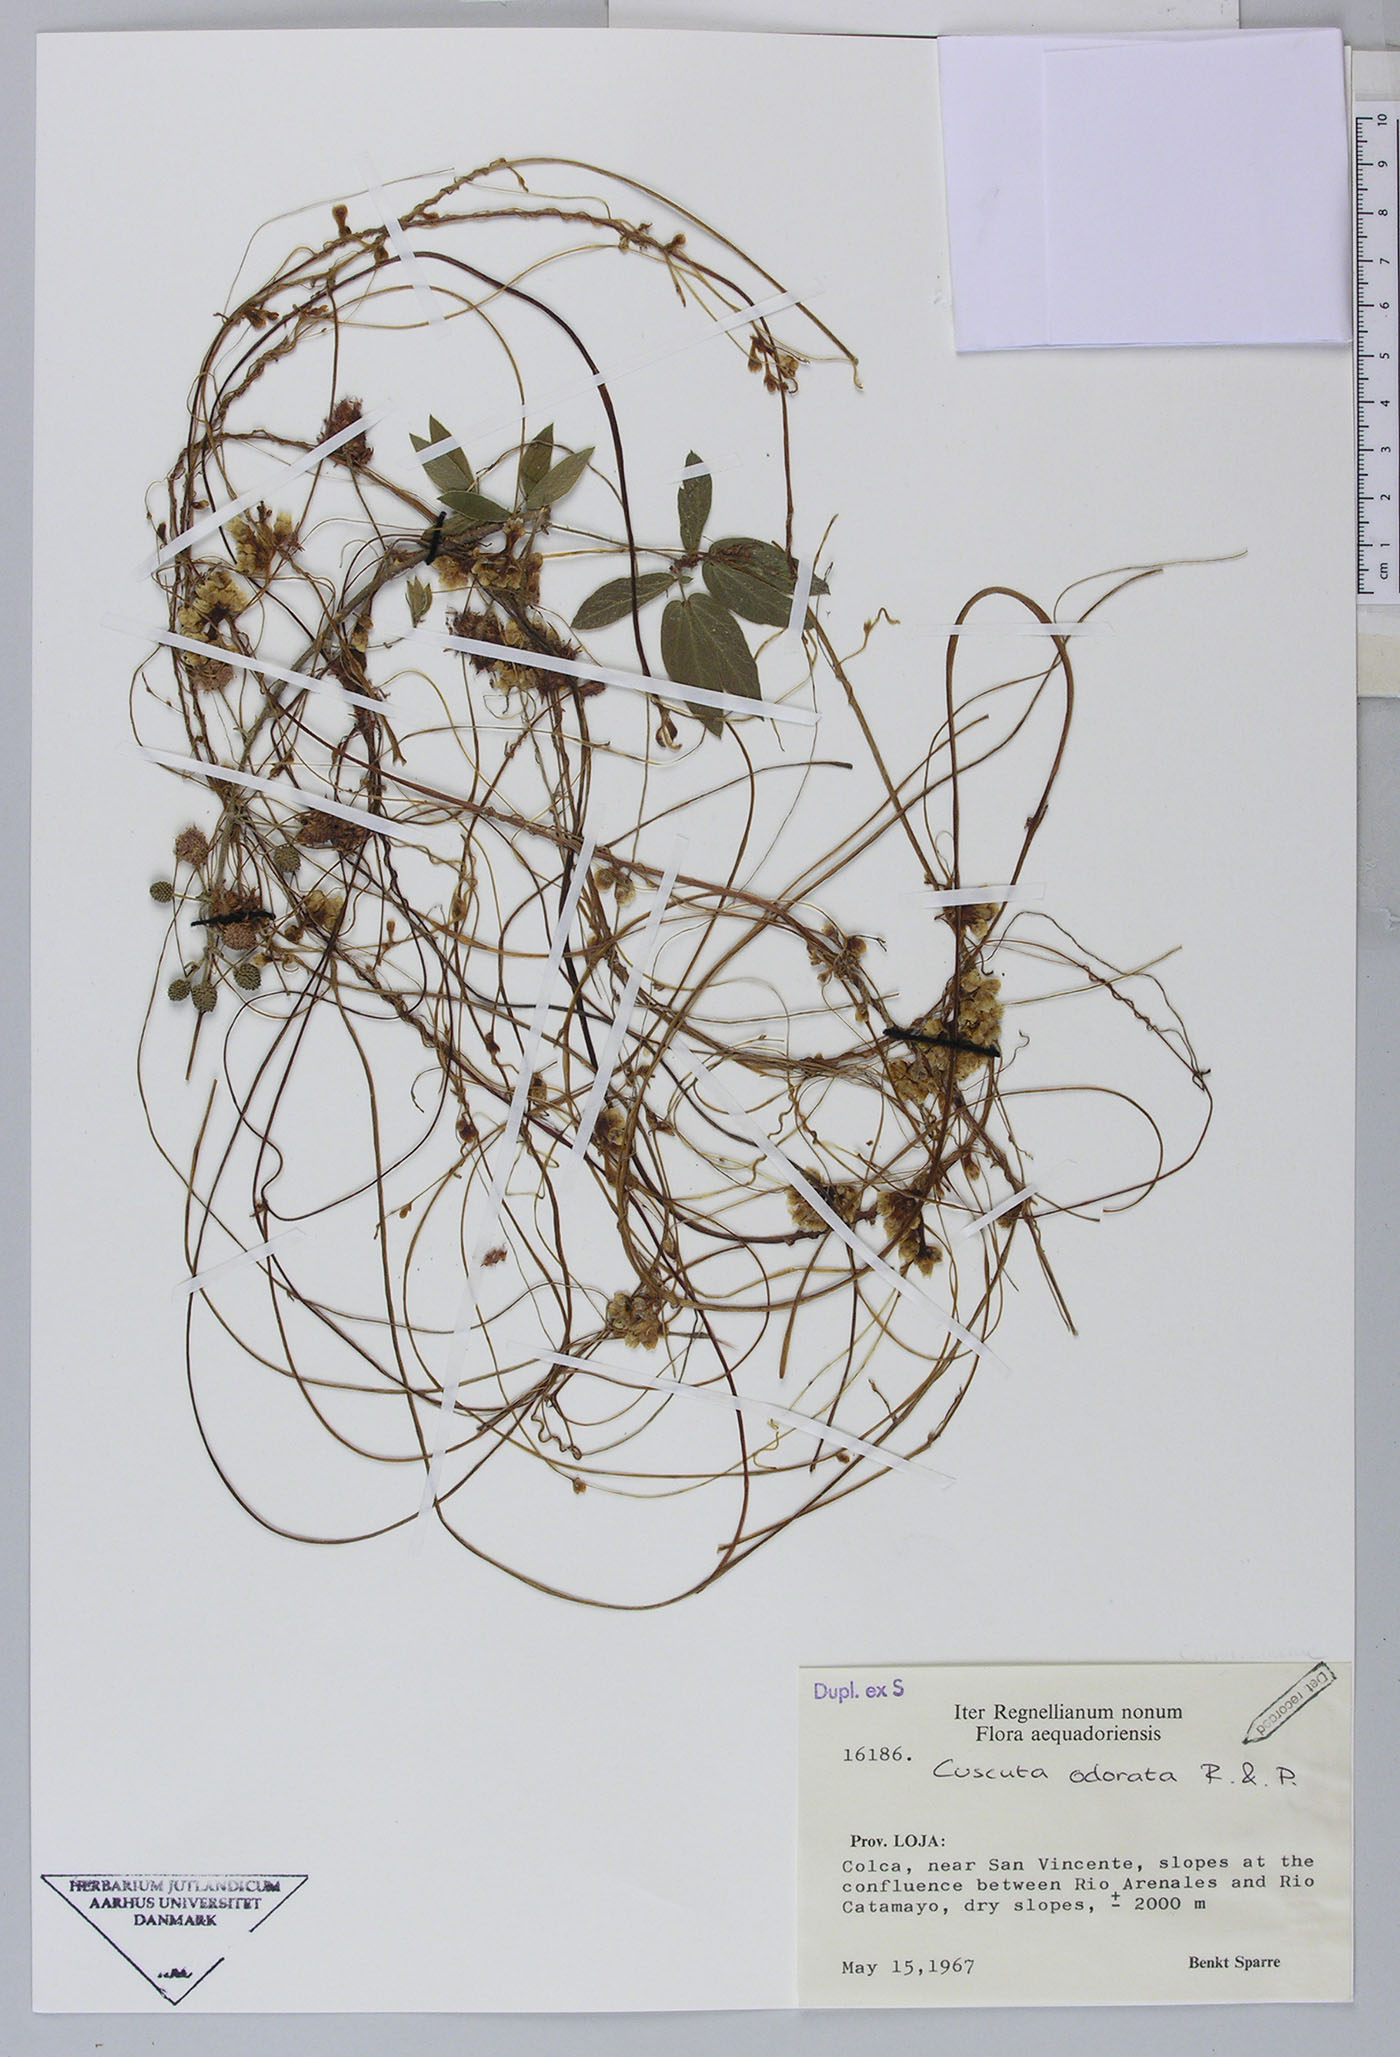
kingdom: Plantae
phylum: Tracheophyta
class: Magnoliopsida
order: Solanales
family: Convolvulaceae
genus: Cuscuta
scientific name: Cuscuta odorata
